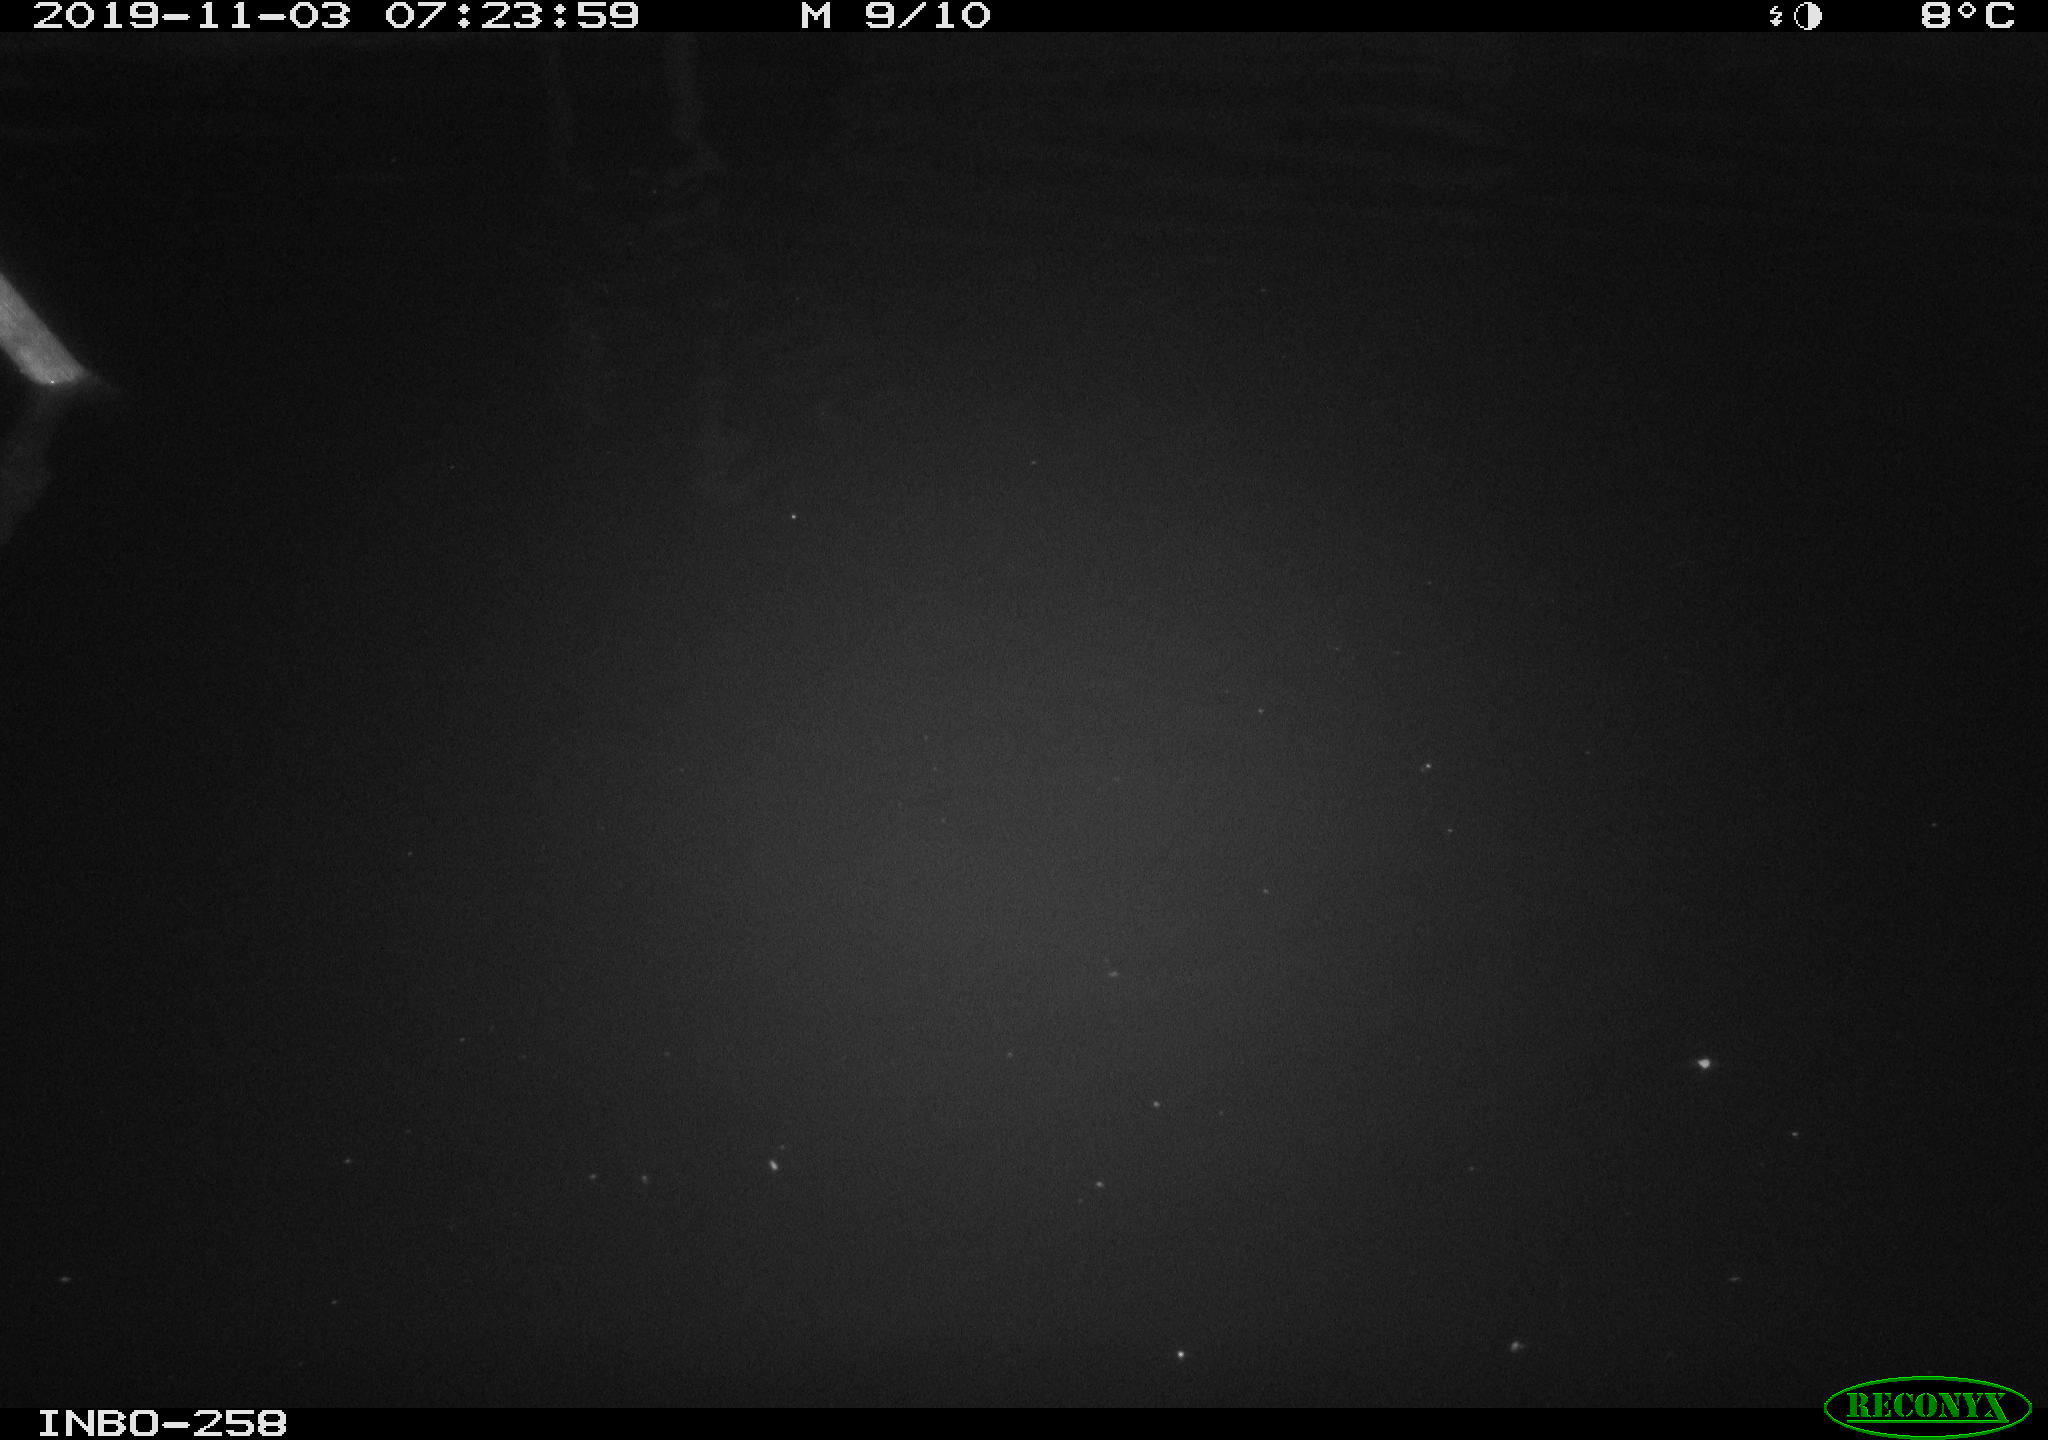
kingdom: Animalia
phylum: Chordata
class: Aves
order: Anseriformes
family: Anatidae
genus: Anas
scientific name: Anas platyrhynchos
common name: Mallard
